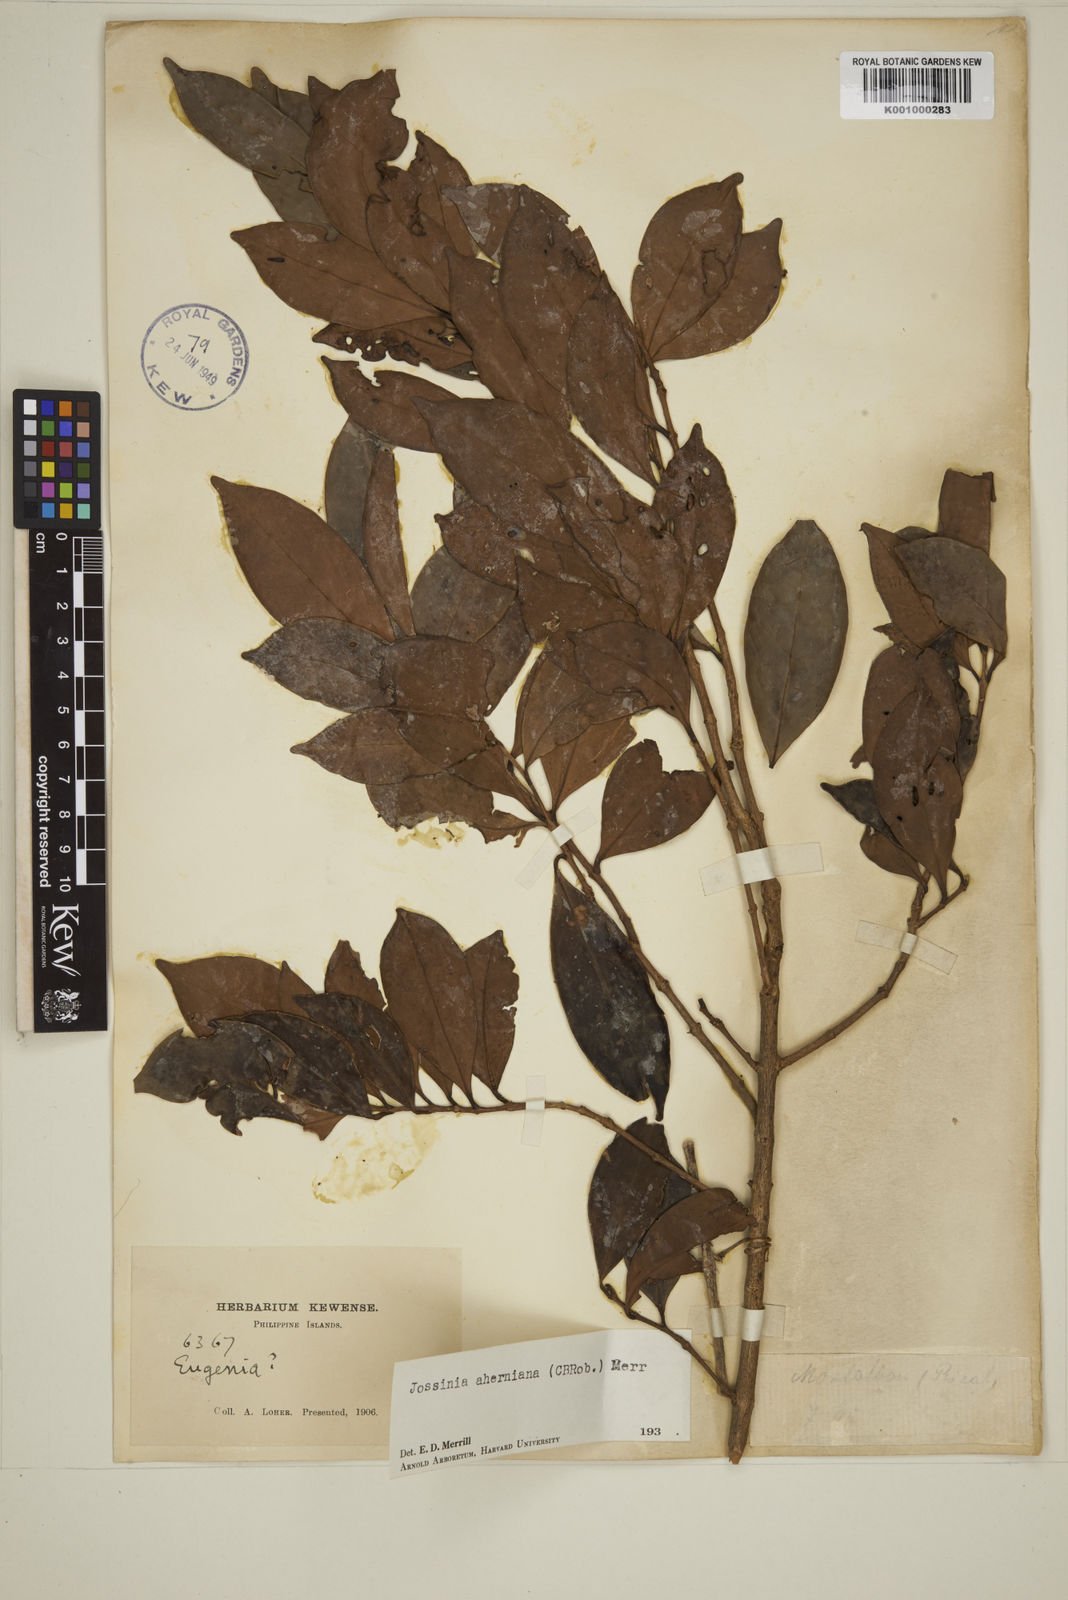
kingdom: Plantae
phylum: Tracheophyta
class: Magnoliopsida
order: Myrtales
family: Myrtaceae
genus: Eugenia
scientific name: Eugenia aherniana
